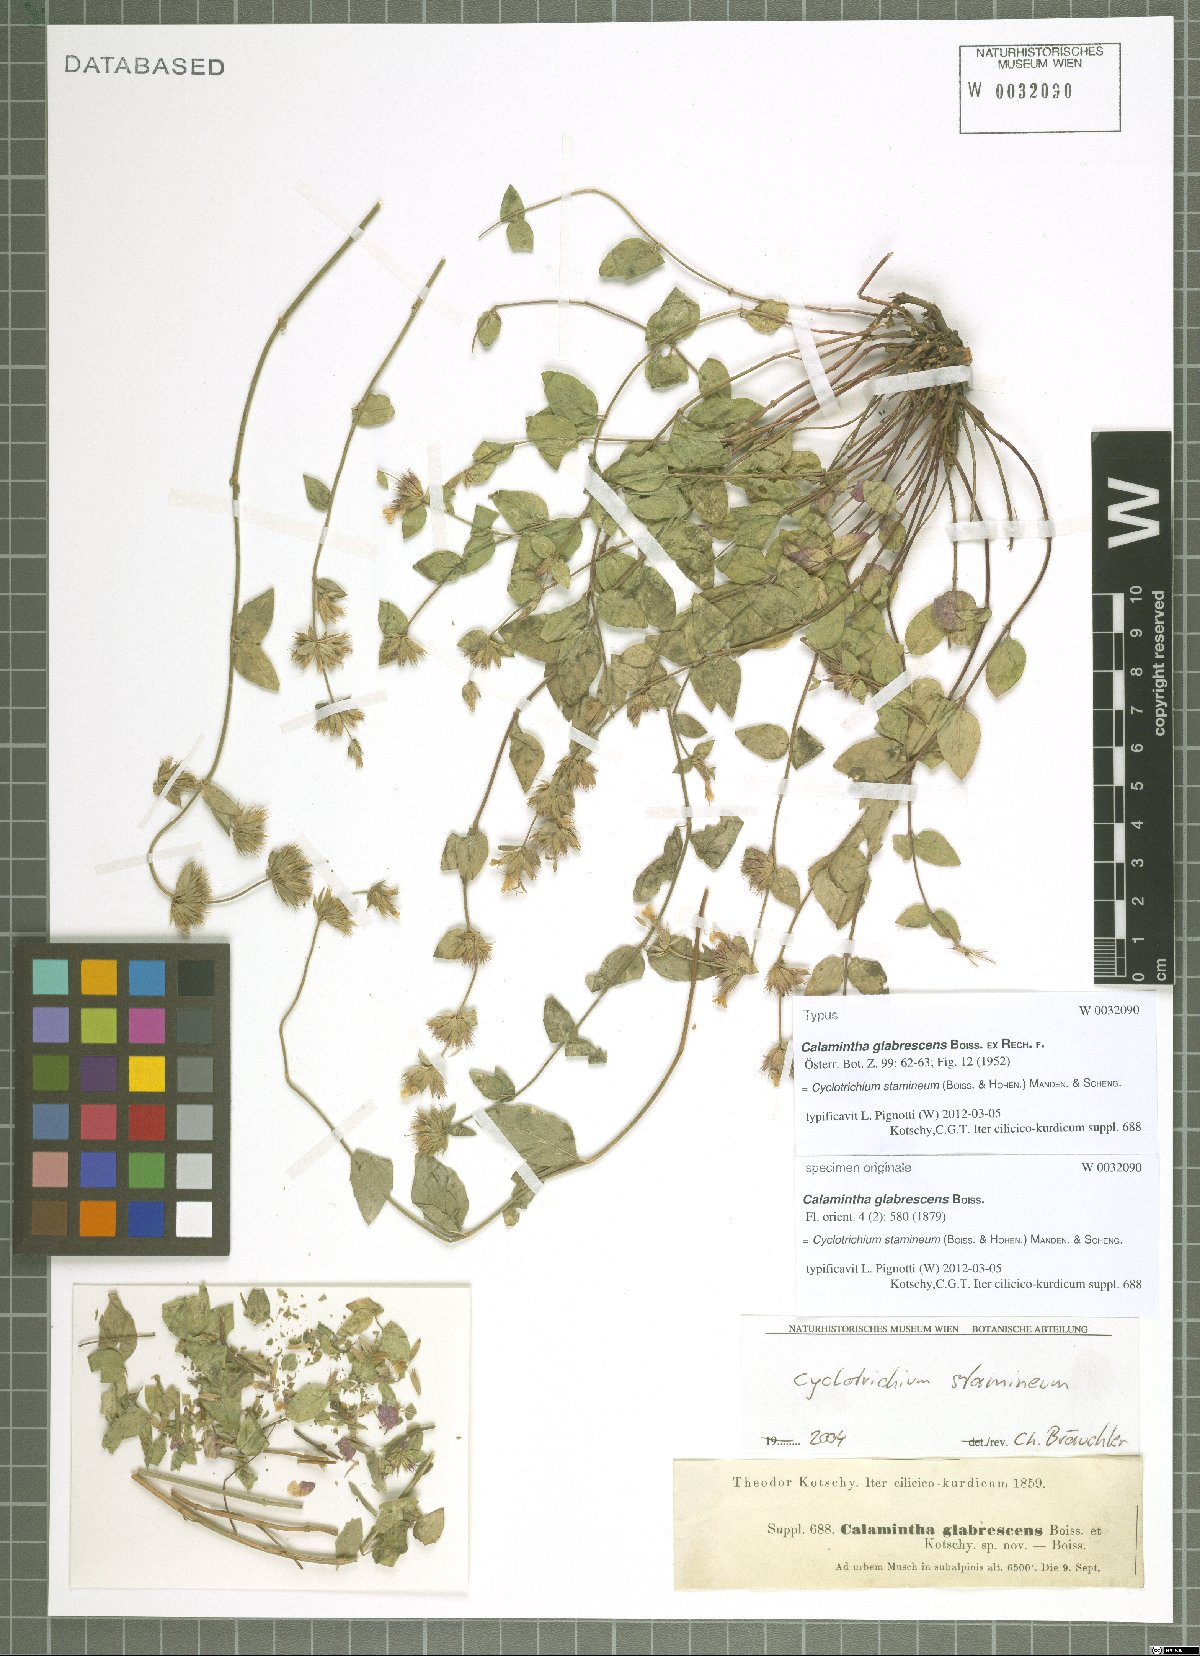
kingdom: Plantae
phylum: Tracheophyta
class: Magnoliopsida
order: Lamiales
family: Lamiaceae
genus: Cyclotrichium
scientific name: Cyclotrichium stamineum
